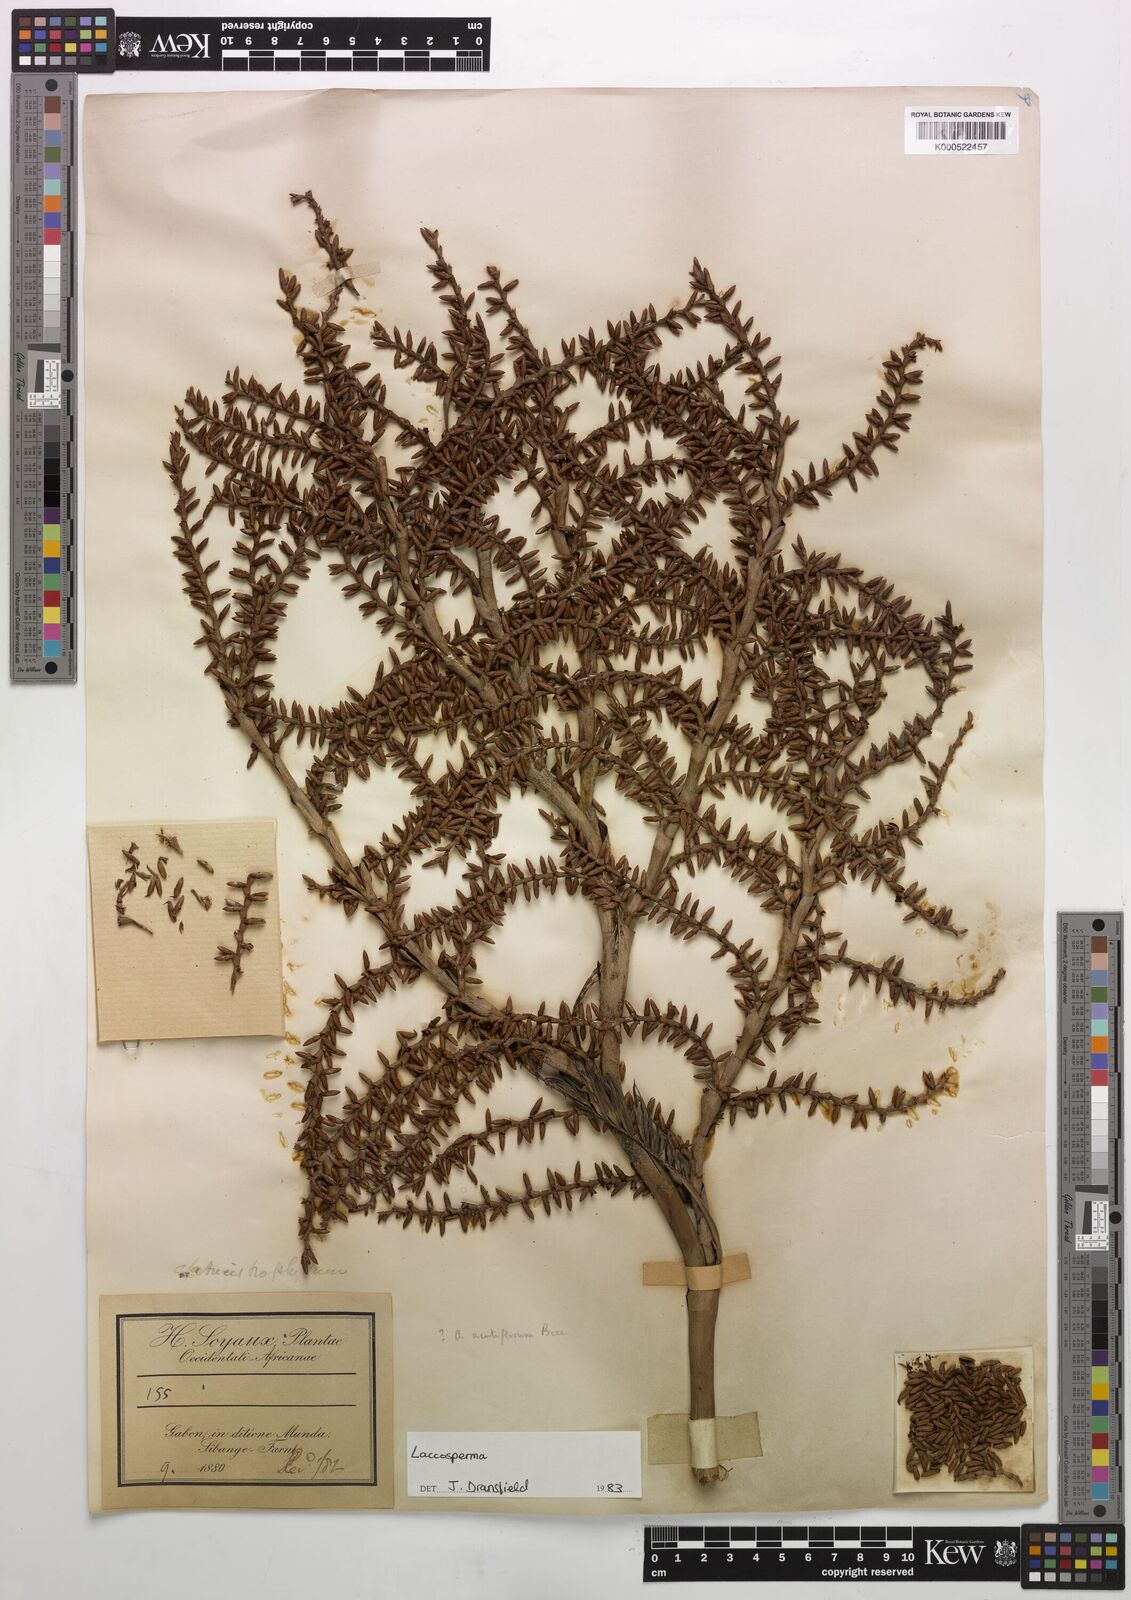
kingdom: Plantae
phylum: Tracheophyta
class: Liliopsida
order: Arecales
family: Arecaceae
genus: Laccosperma
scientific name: Laccosperma
